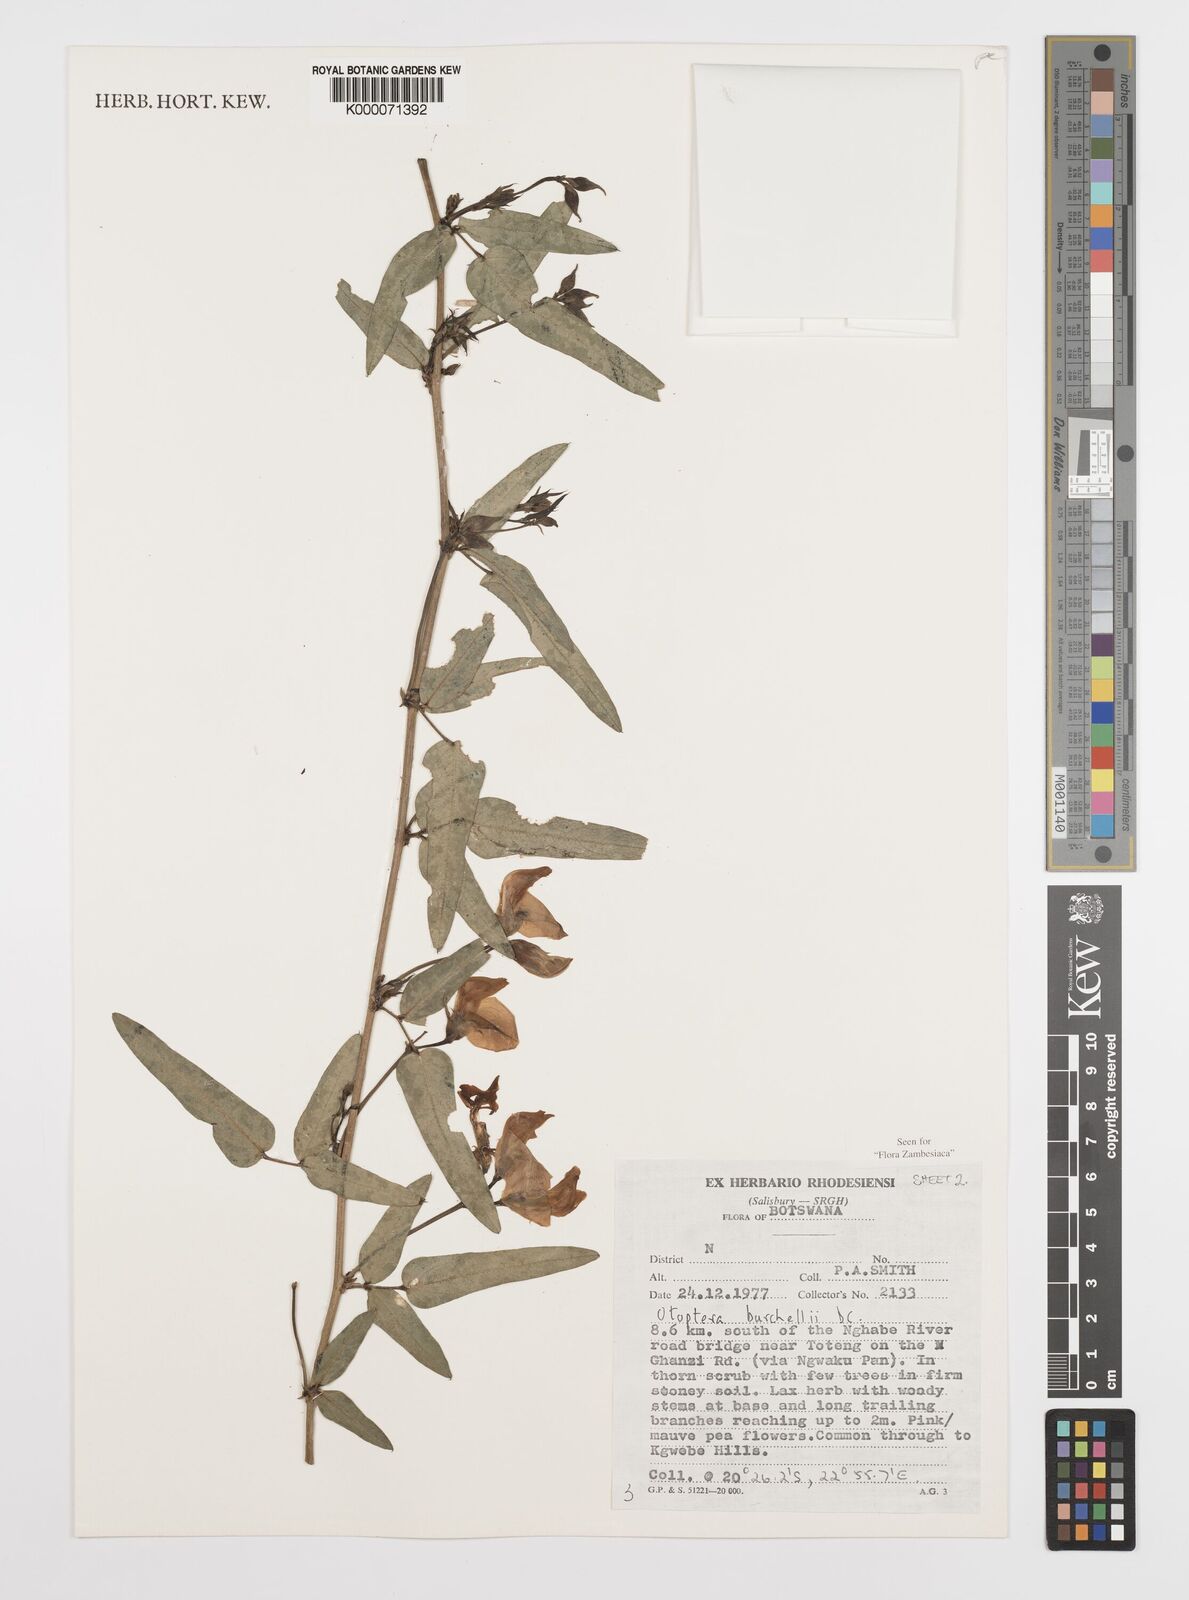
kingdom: Plantae
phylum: Tracheophyta
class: Magnoliopsida
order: Fabales
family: Fabaceae
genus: Otoptera
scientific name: Otoptera burchellii
